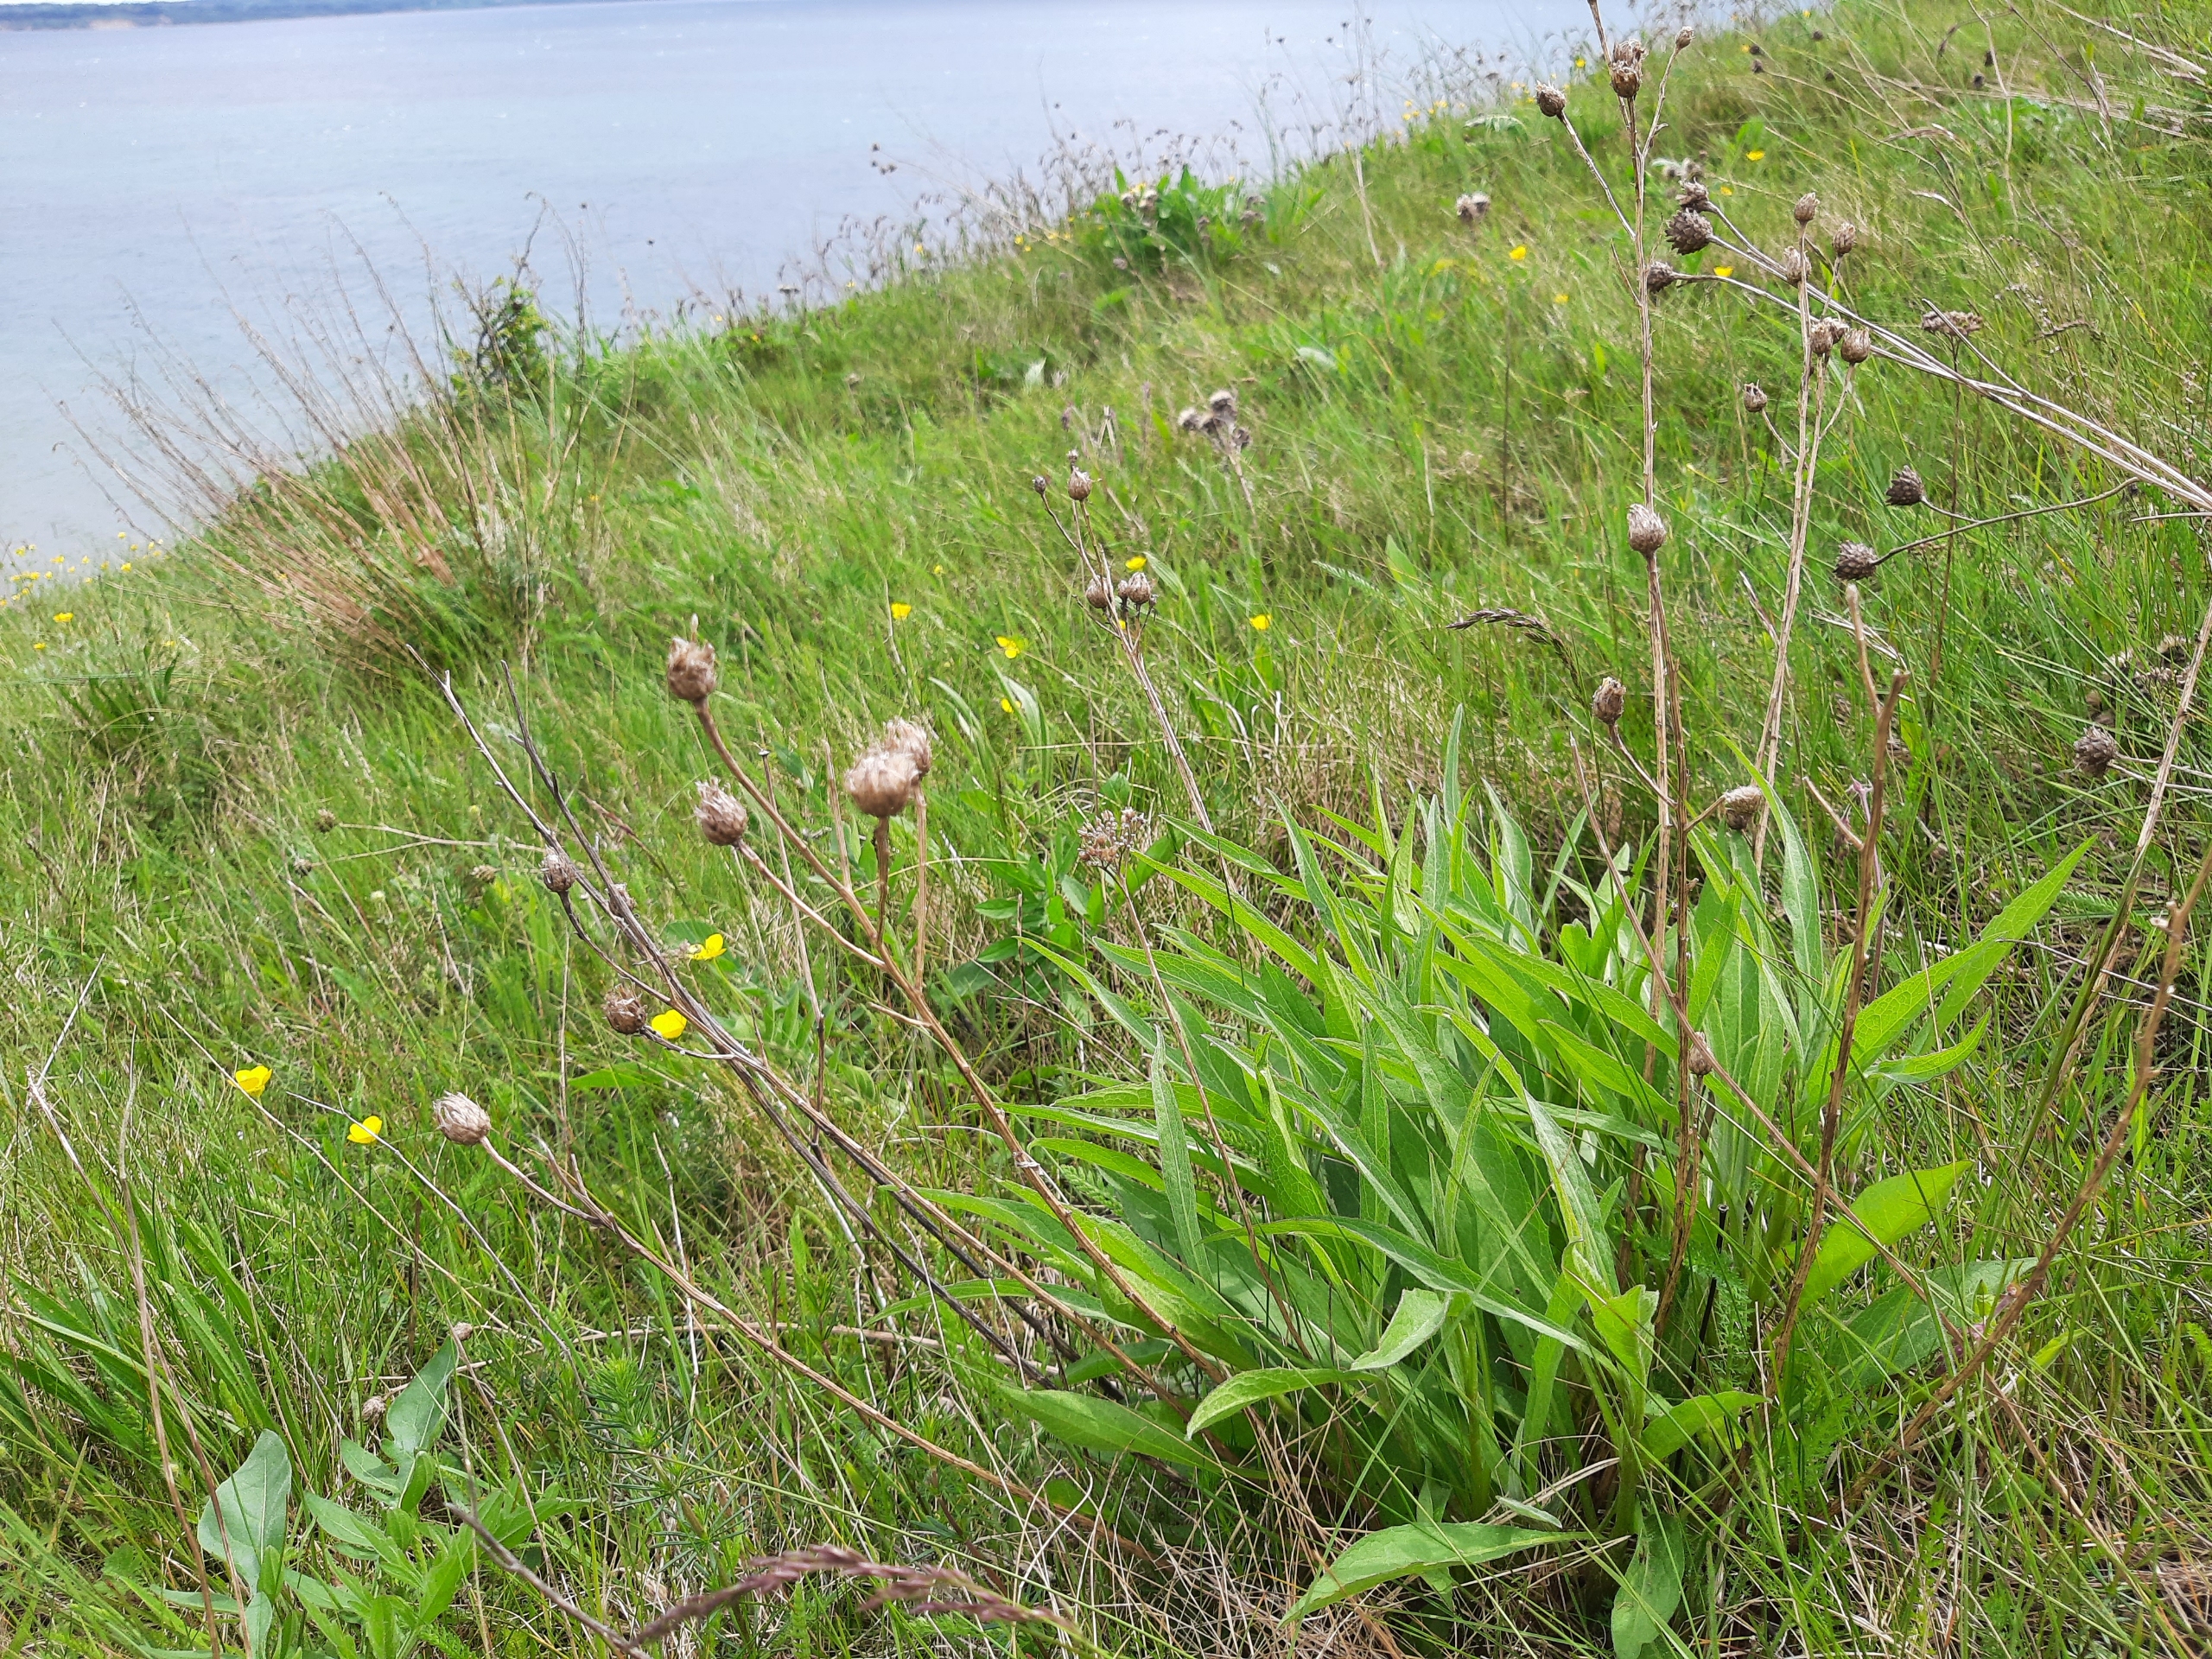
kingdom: Plantae
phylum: Tracheophyta
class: Magnoliopsida
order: Asterales
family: Asteraceae
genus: Centaurea
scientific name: Centaurea jacea
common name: Almindelig knopurt
